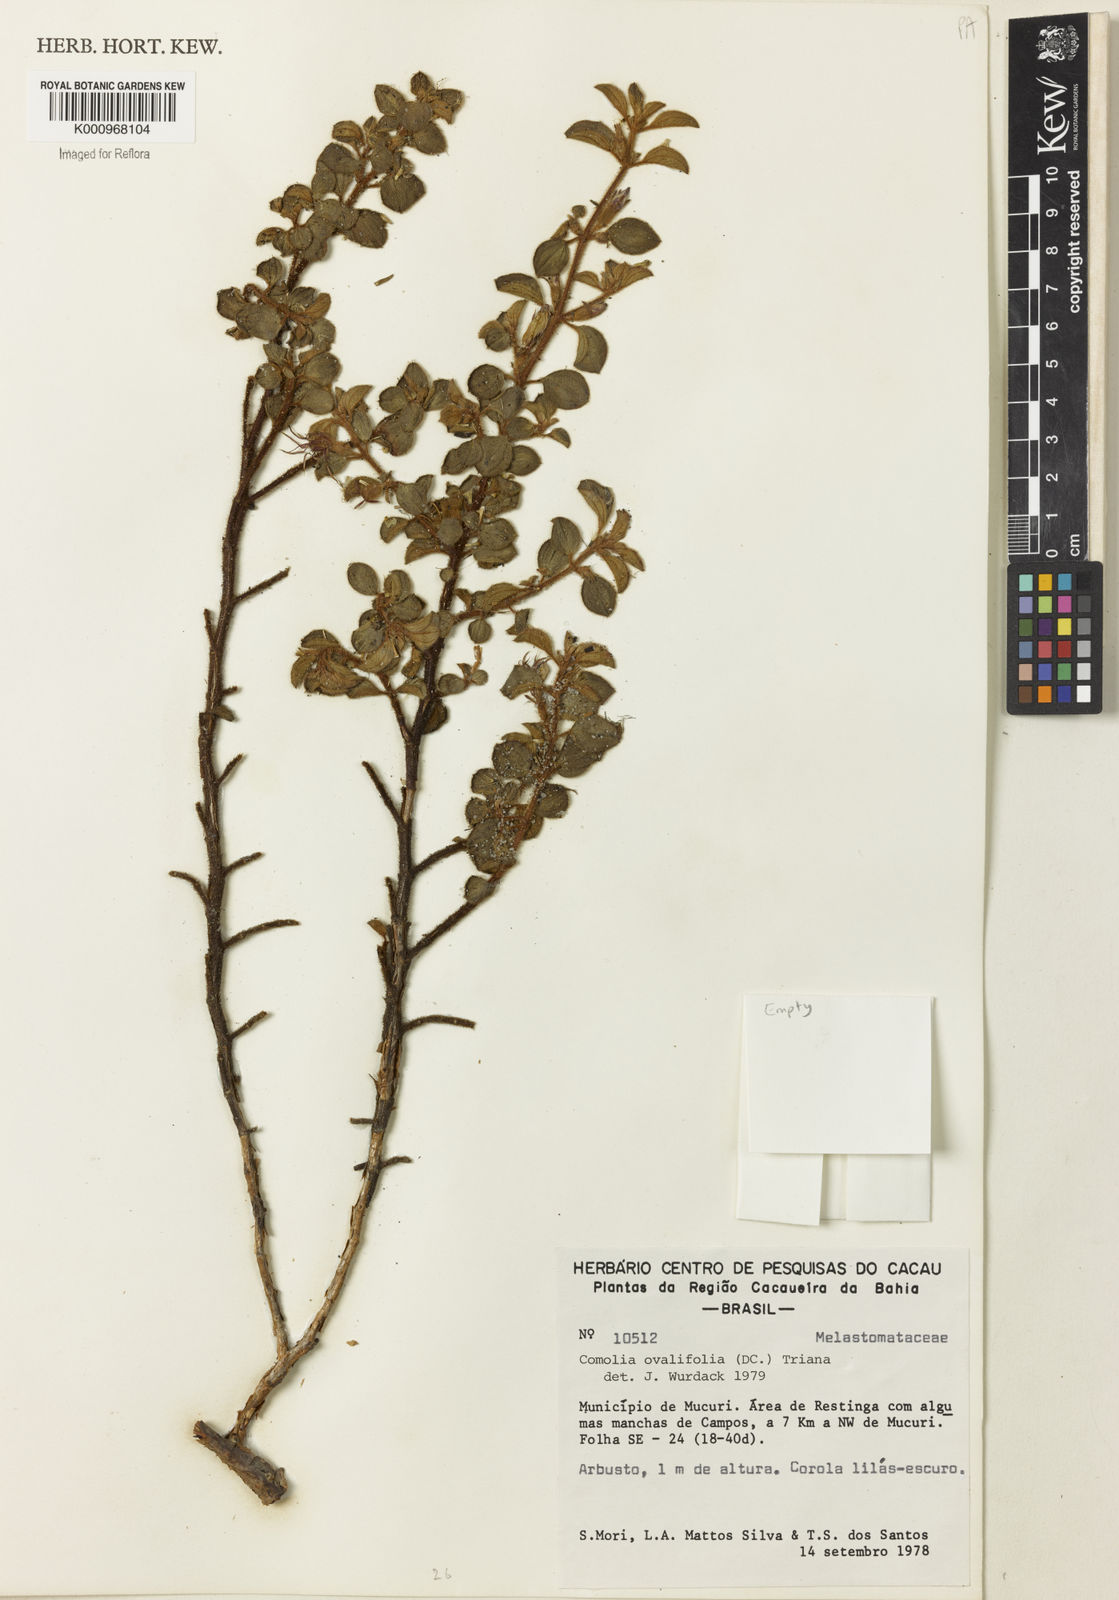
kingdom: Plantae
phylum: Tracheophyta
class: Magnoliopsida
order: Myrtales
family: Melastomataceae
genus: Comolia
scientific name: Comolia ovalifolia
